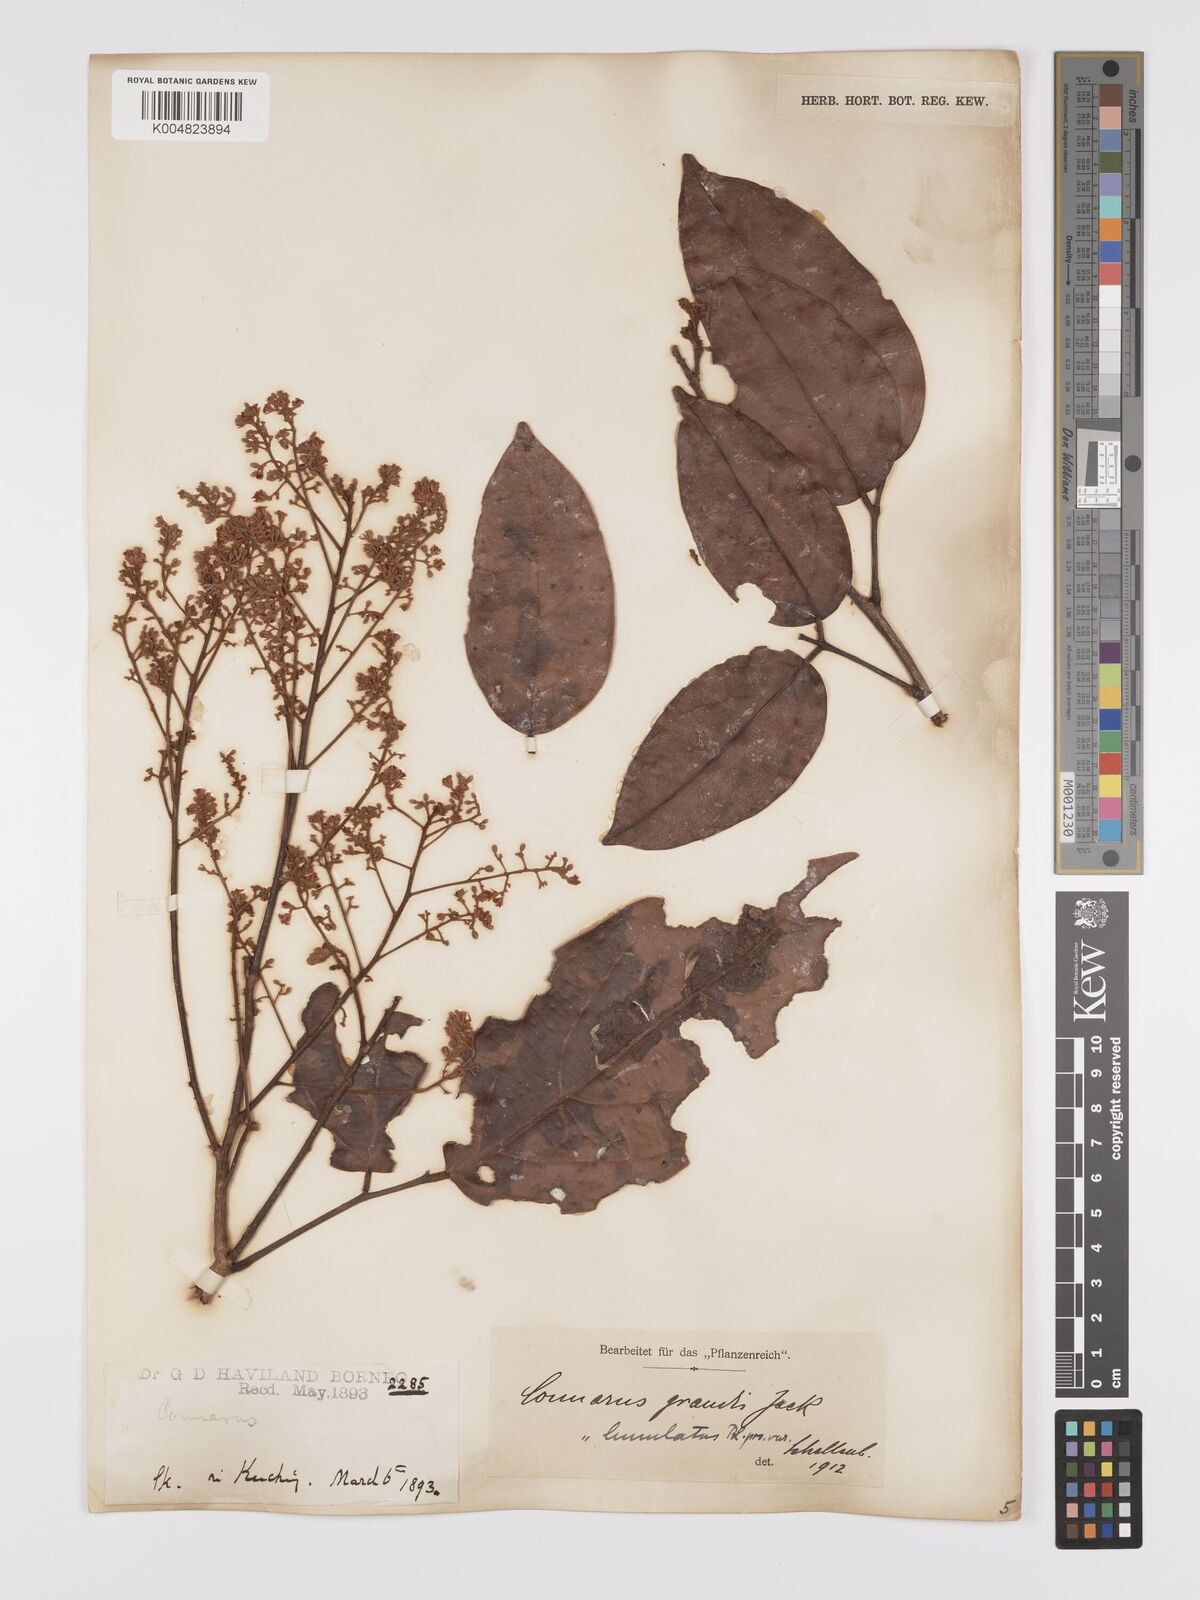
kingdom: Plantae
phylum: Tracheophyta
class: Magnoliopsida
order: Oxalidales
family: Connaraceae
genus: Connarus
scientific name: Connarus grandis
